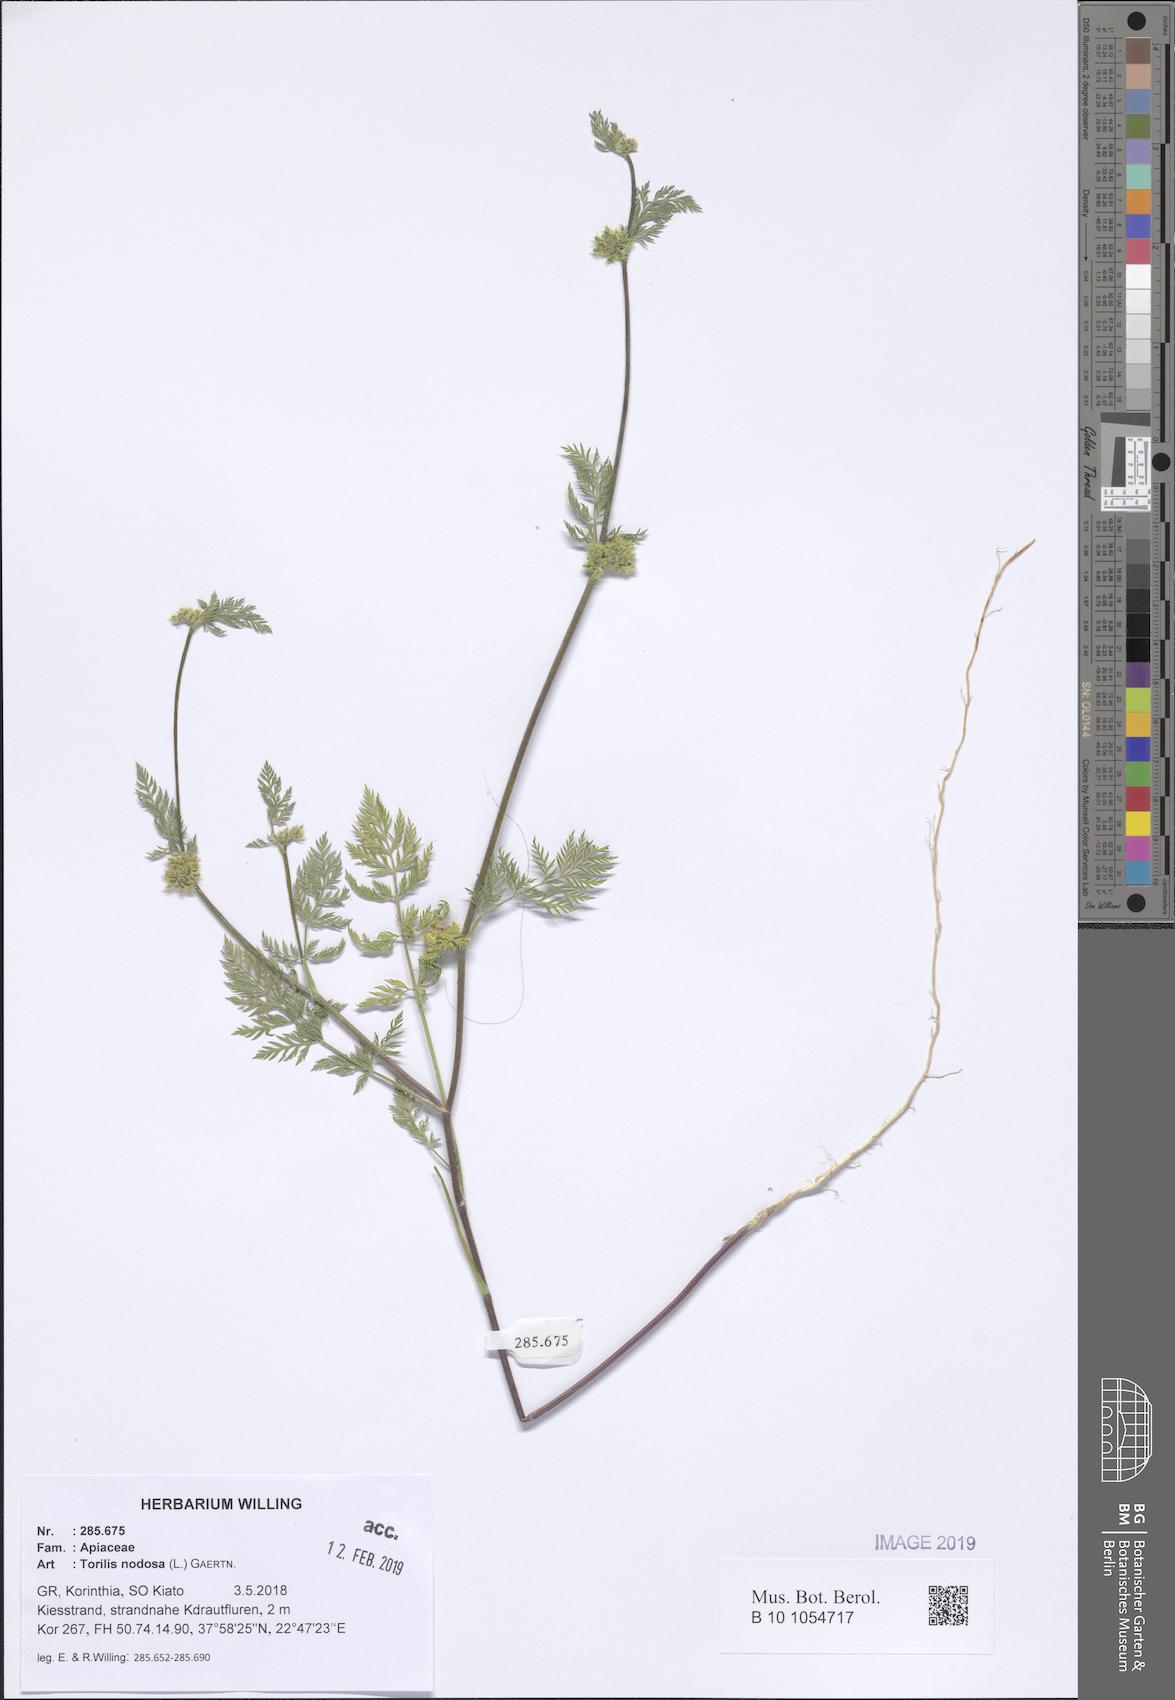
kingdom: Plantae
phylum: Tracheophyta
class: Magnoliopsida
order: Apiales
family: Apiaceae
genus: Torilis
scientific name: Torilis nodosa
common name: Knotted hedge-parsley
